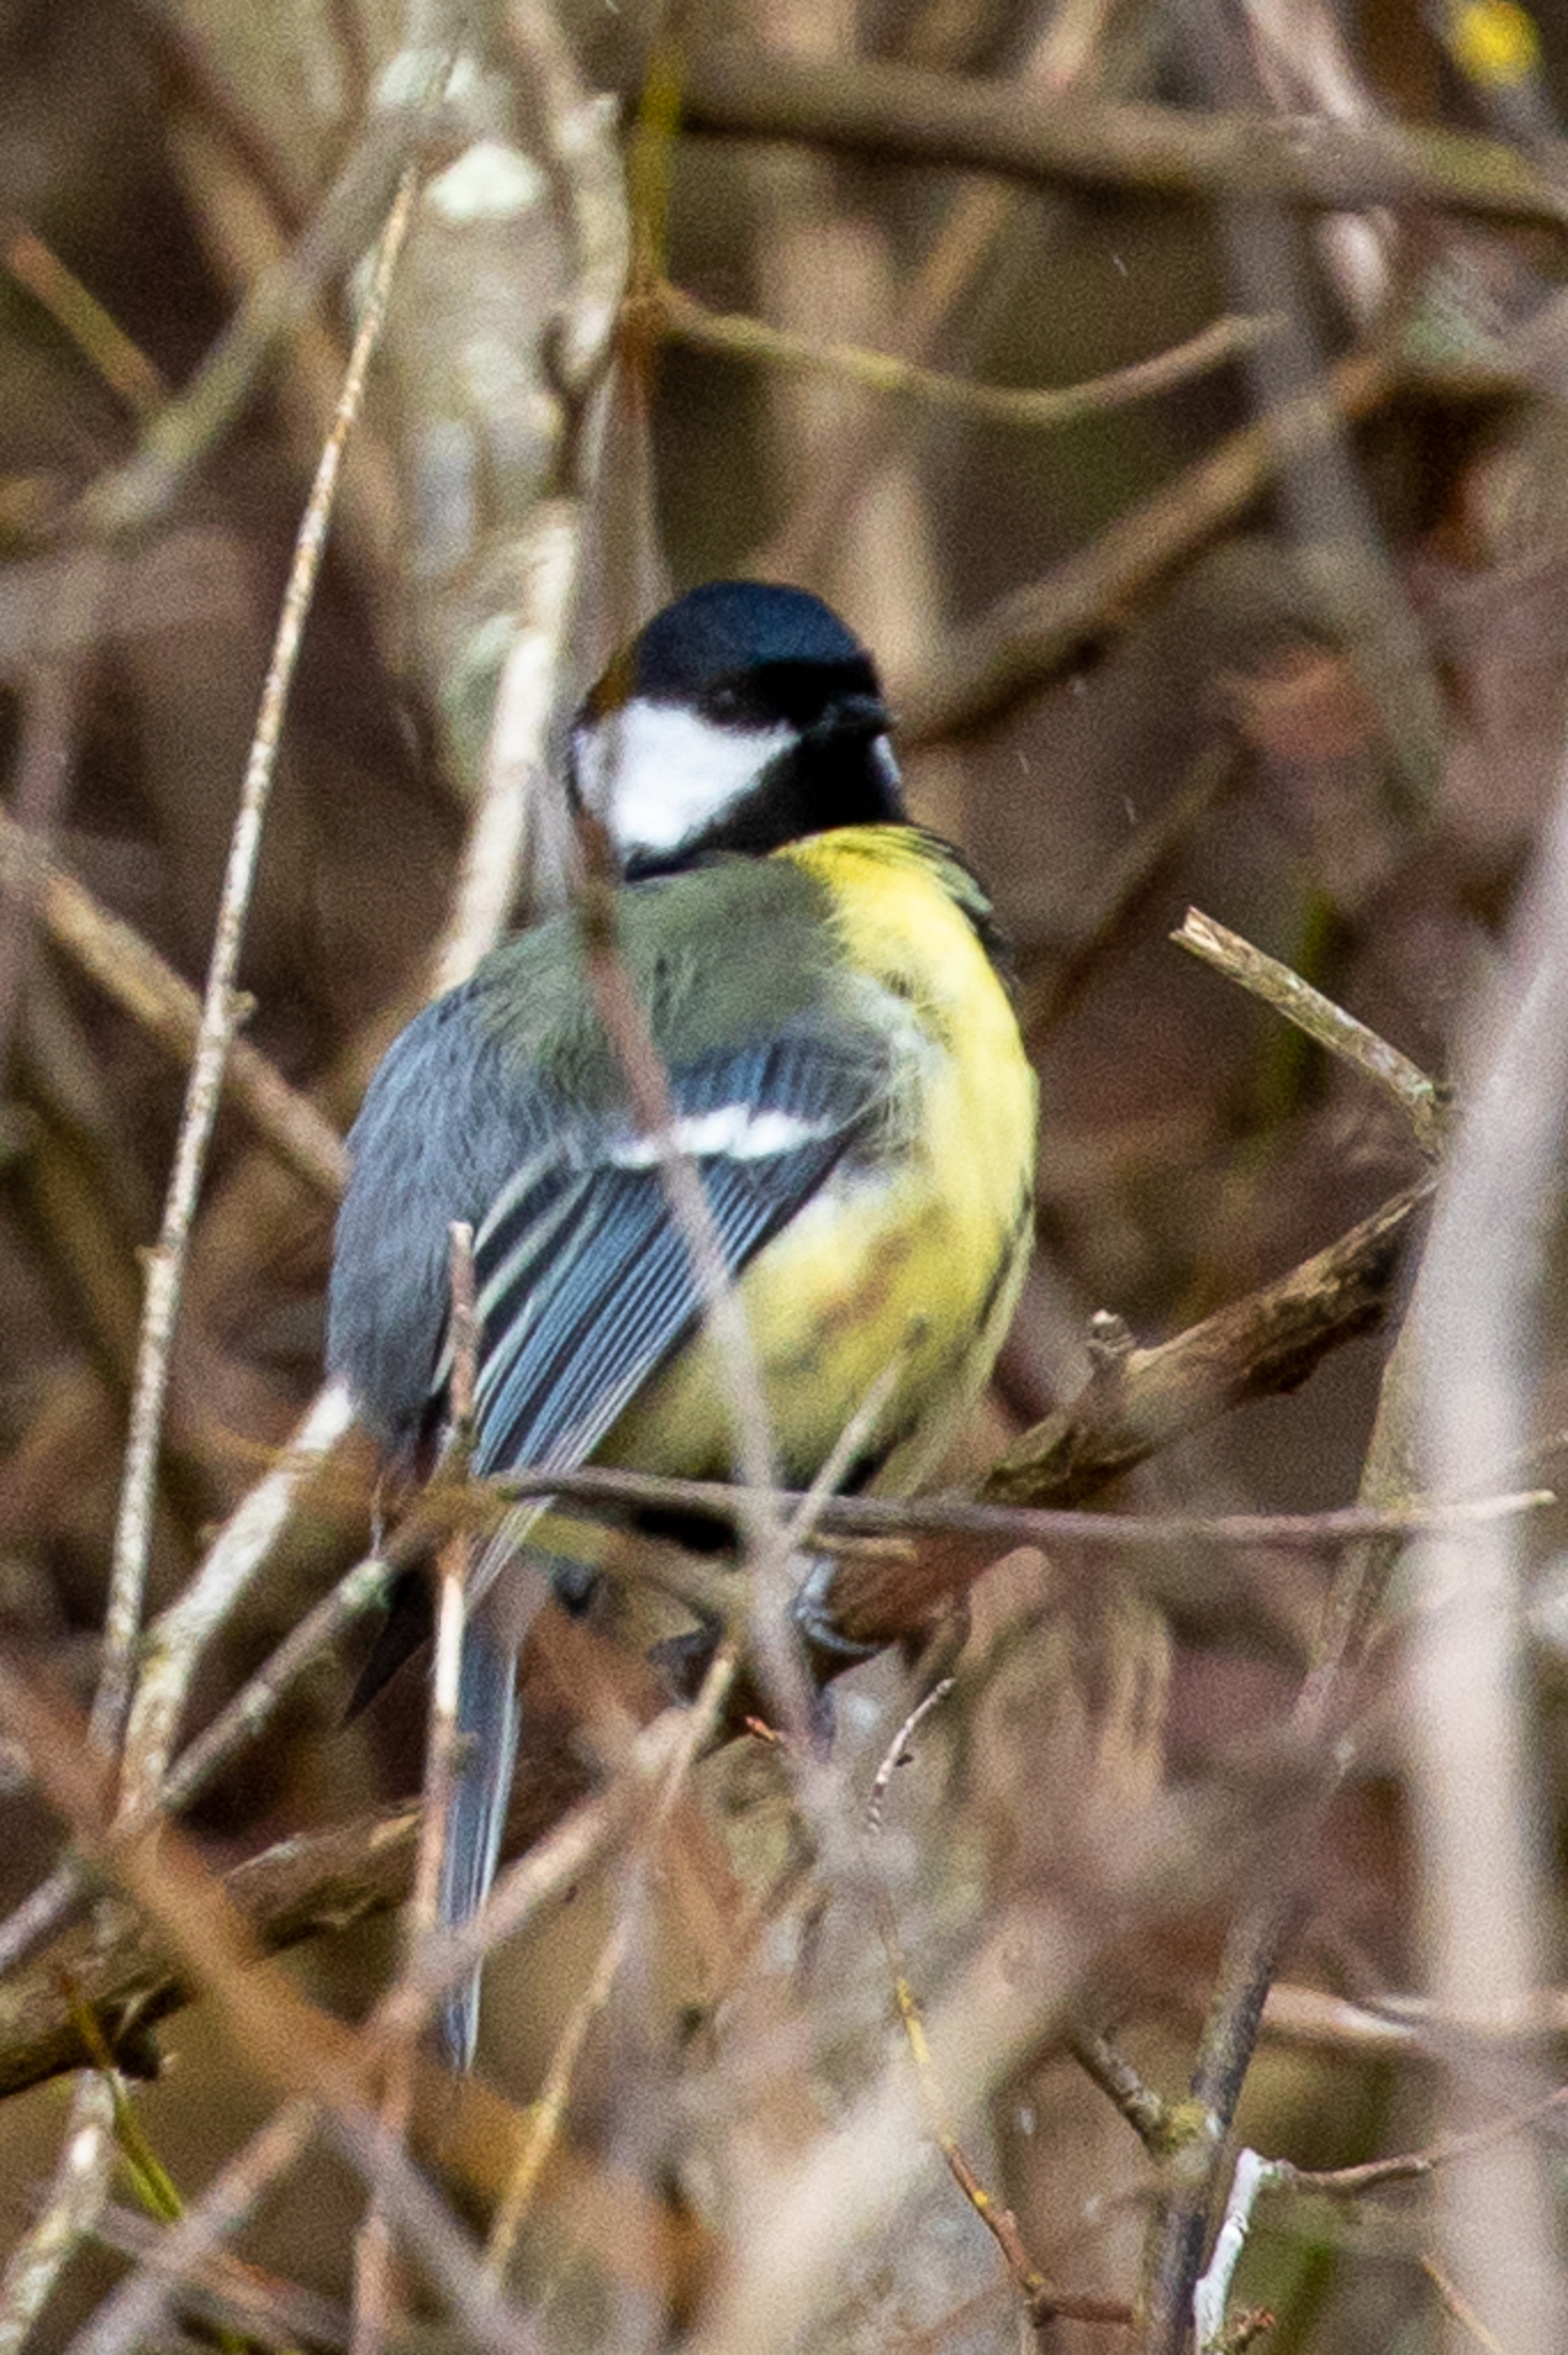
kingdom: Animalia
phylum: Chordata
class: Aves
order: Passeriformes
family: Paridae
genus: Parus
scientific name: Parus major
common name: Musvit
